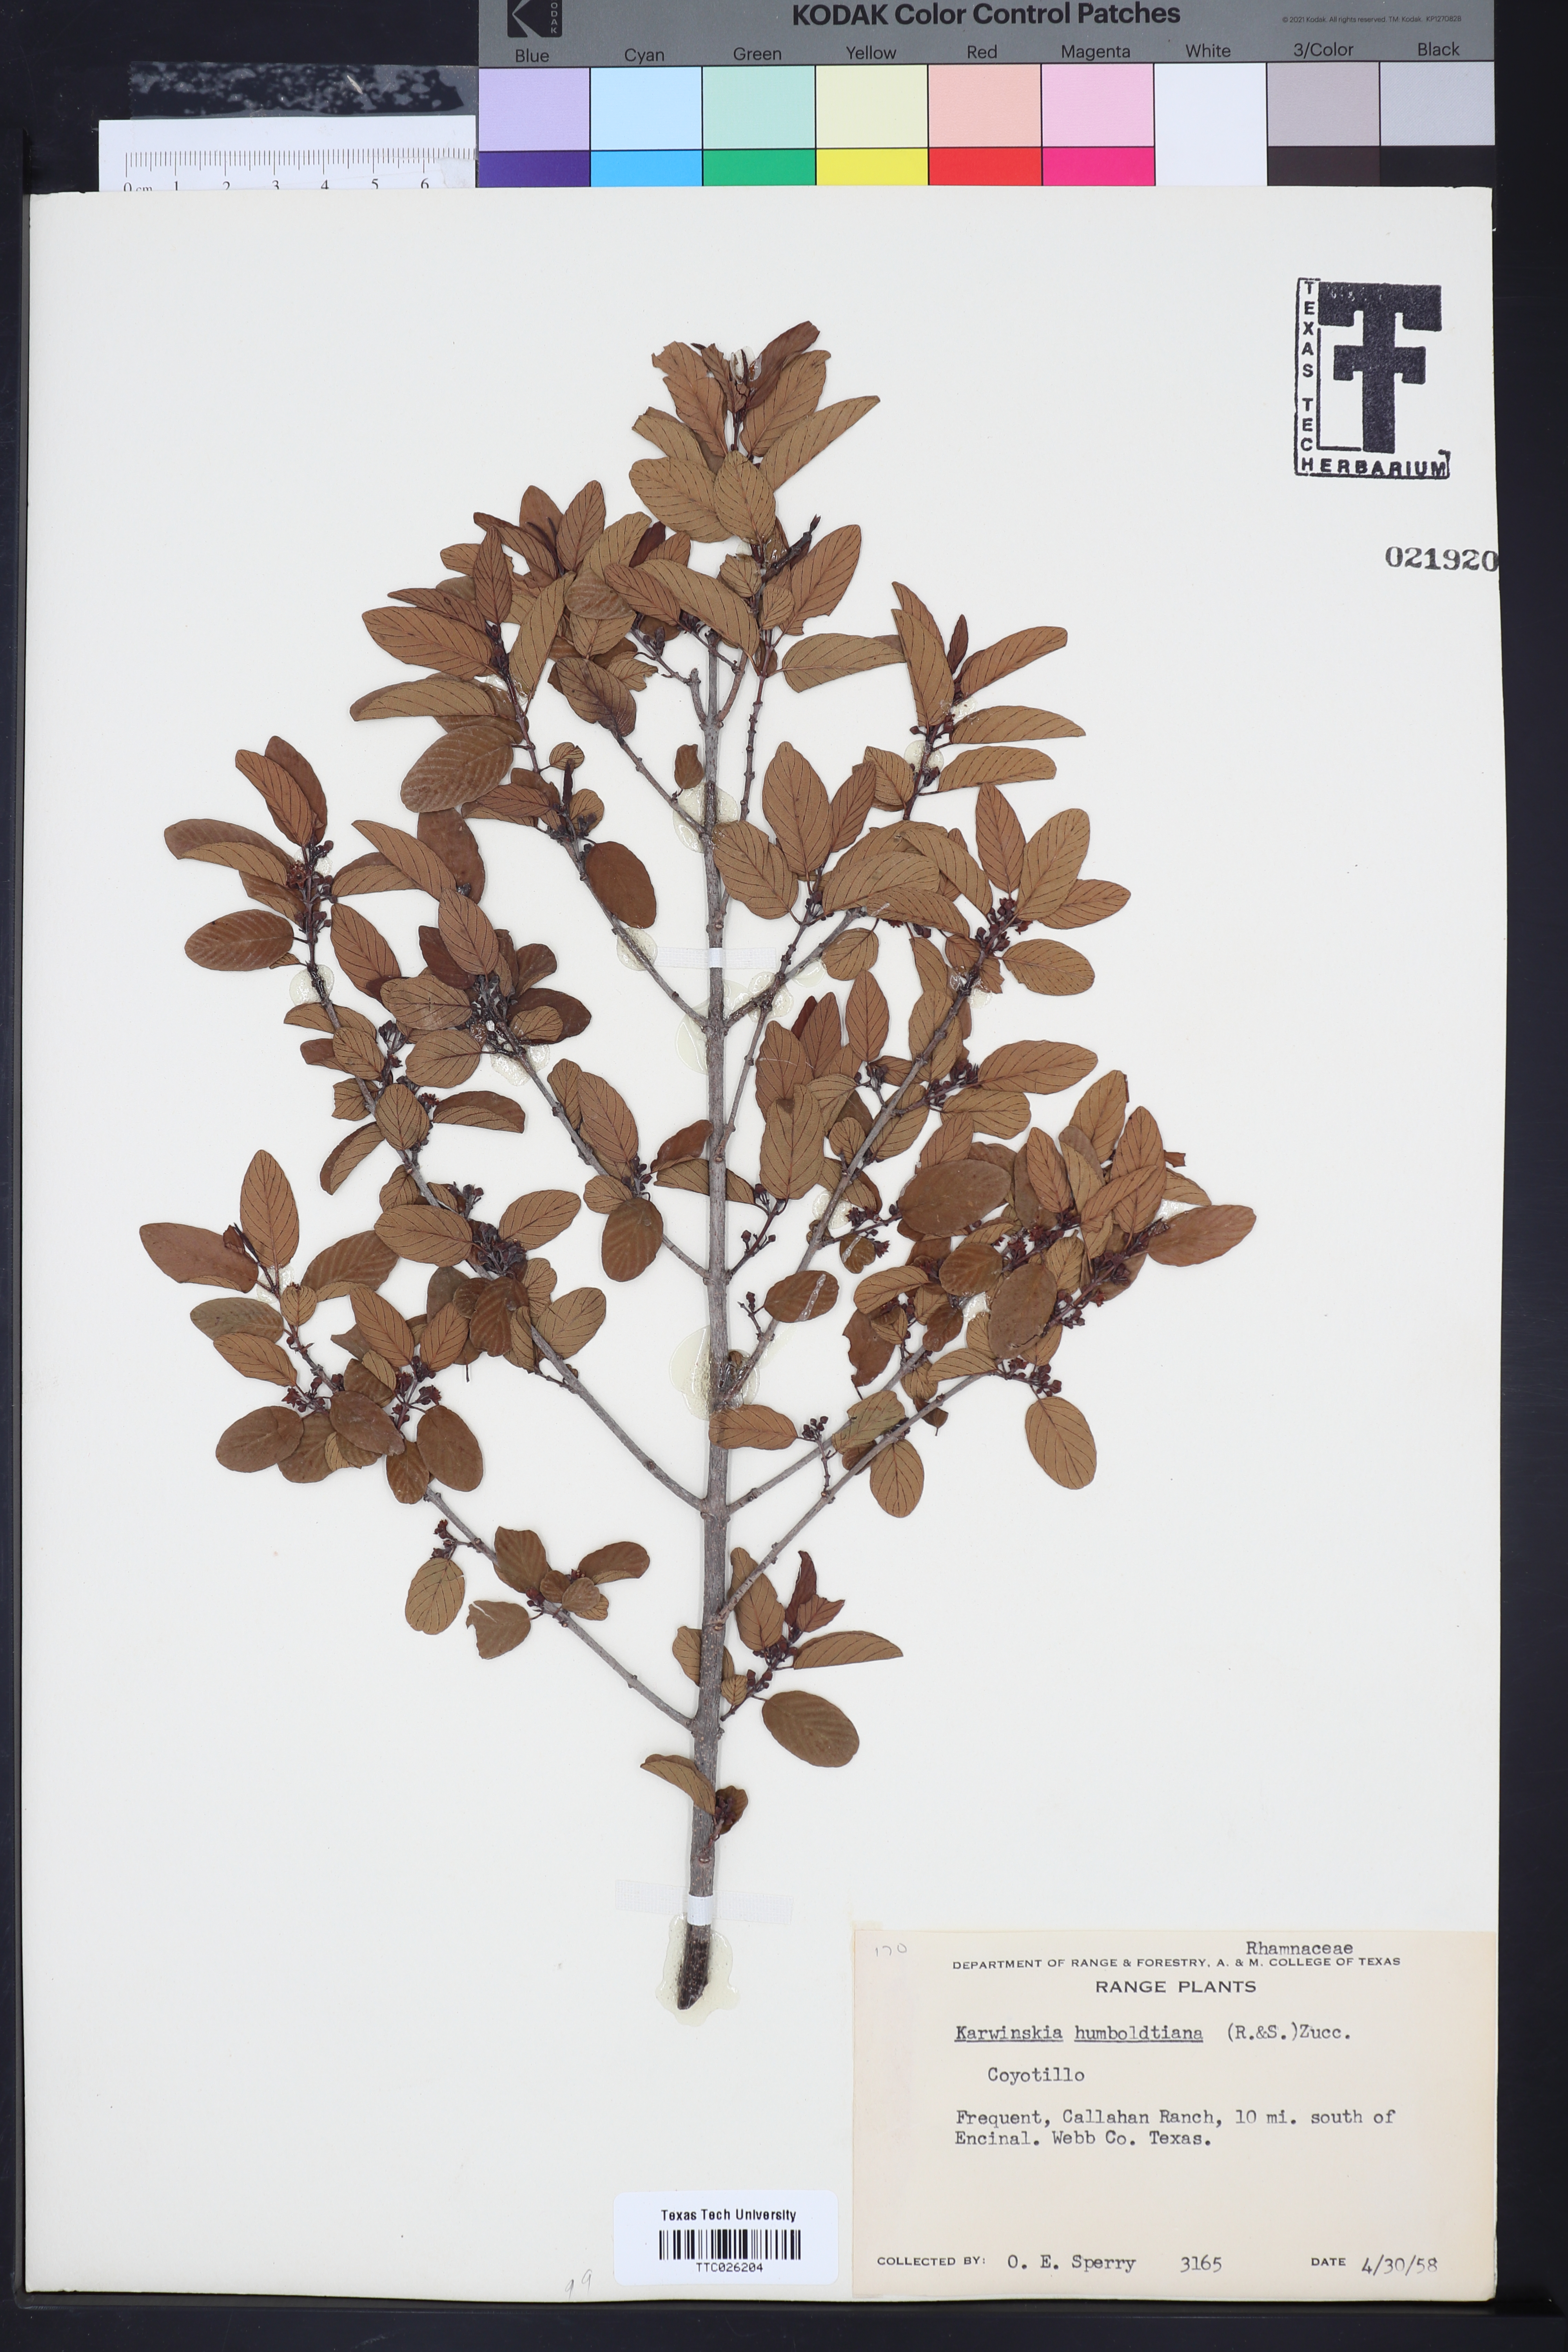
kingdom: Plantae
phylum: Tracheophyta
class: Magnoliopsida
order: Rosales
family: Rhamnaceae
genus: Karwinskia
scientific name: Karwinskia humboldtiana
